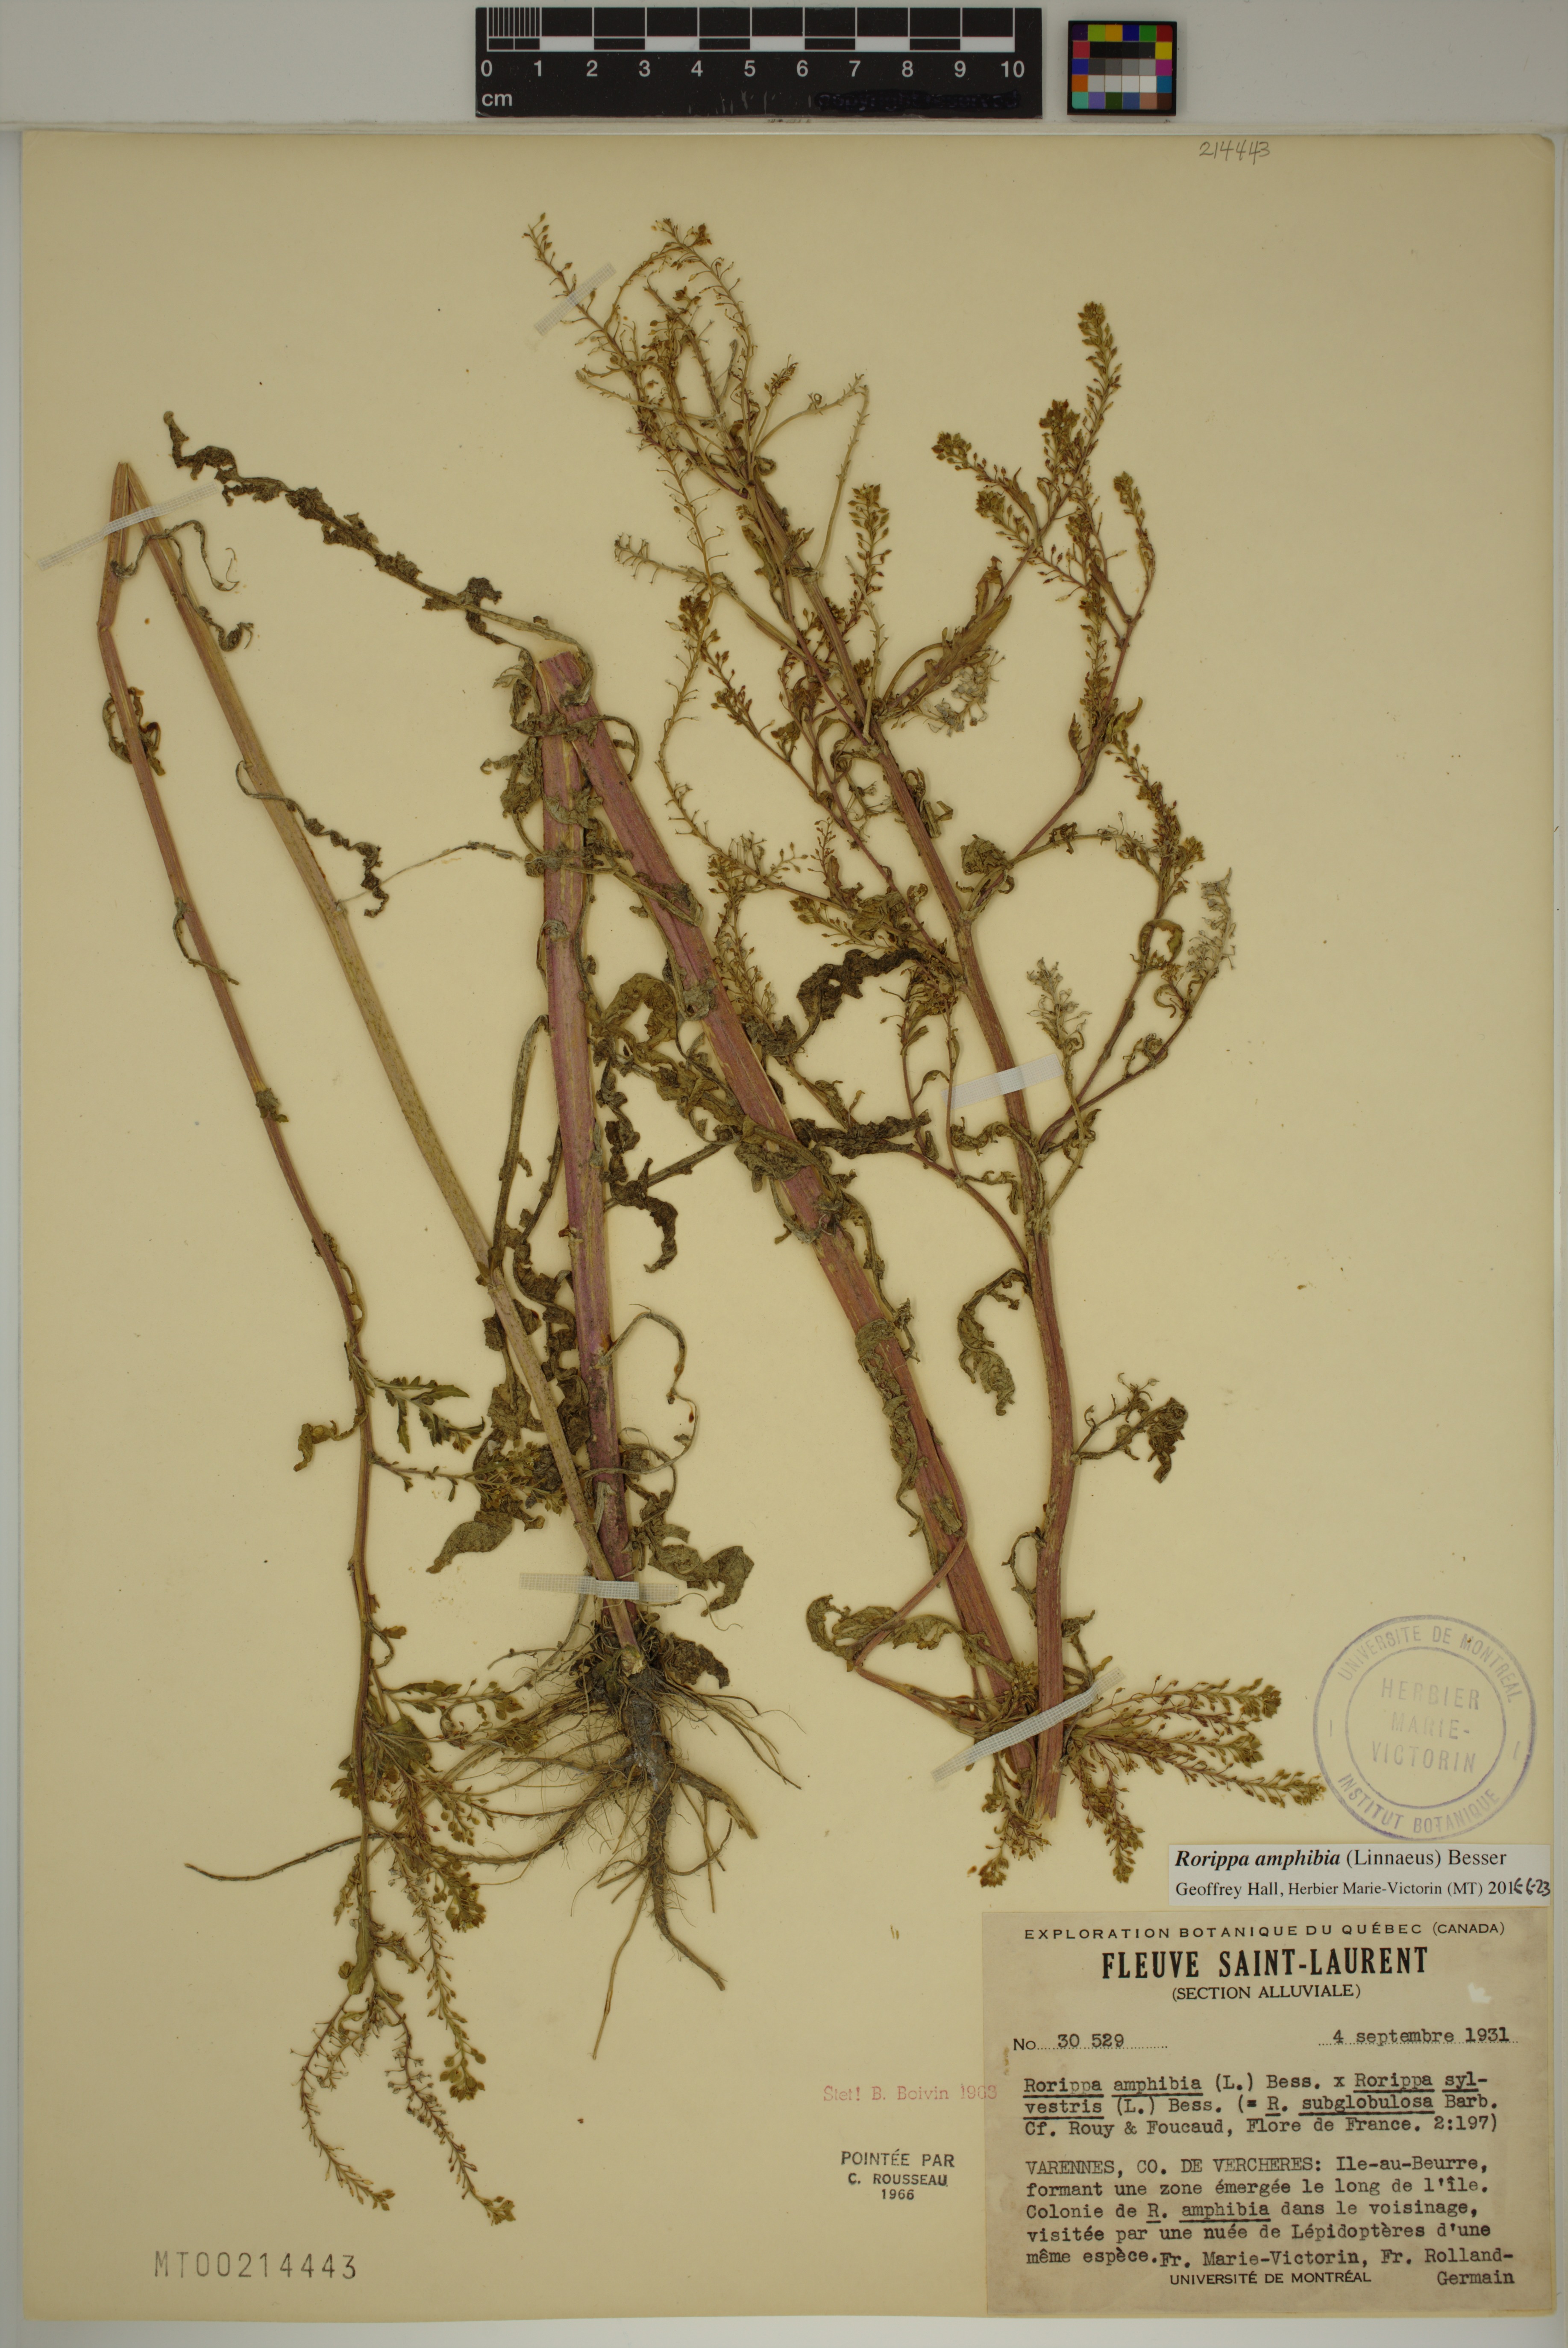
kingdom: Plantae
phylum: Tracheophyta
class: Magnoliopsida
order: Brassicales
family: Brassicaceae
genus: Rorippa
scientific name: Rorippa amphibia
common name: Great yellow-cress
